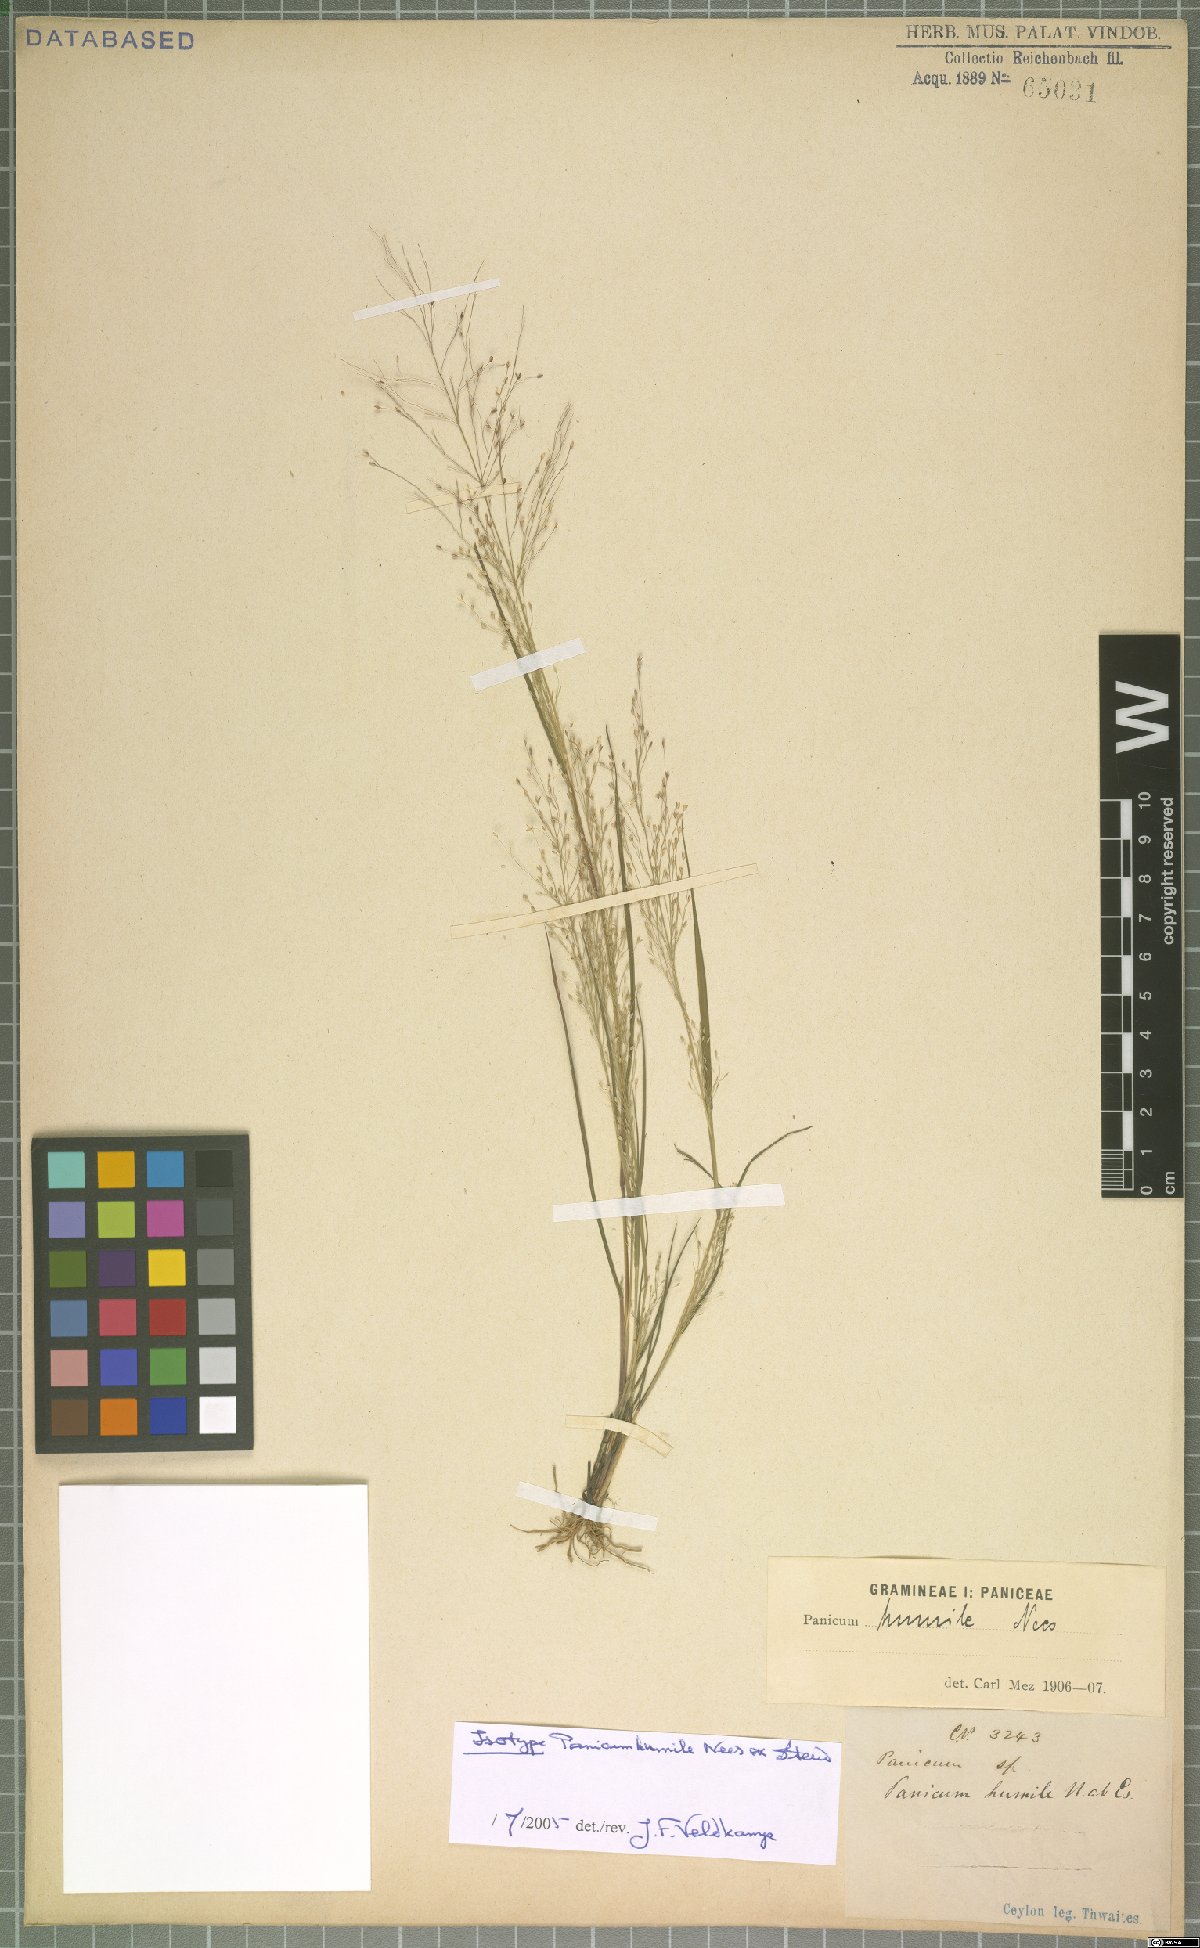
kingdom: Plantae
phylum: Tracheophyta
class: Liliopsida
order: Poales
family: Poaceae
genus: Panicum
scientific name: Panicum humile
